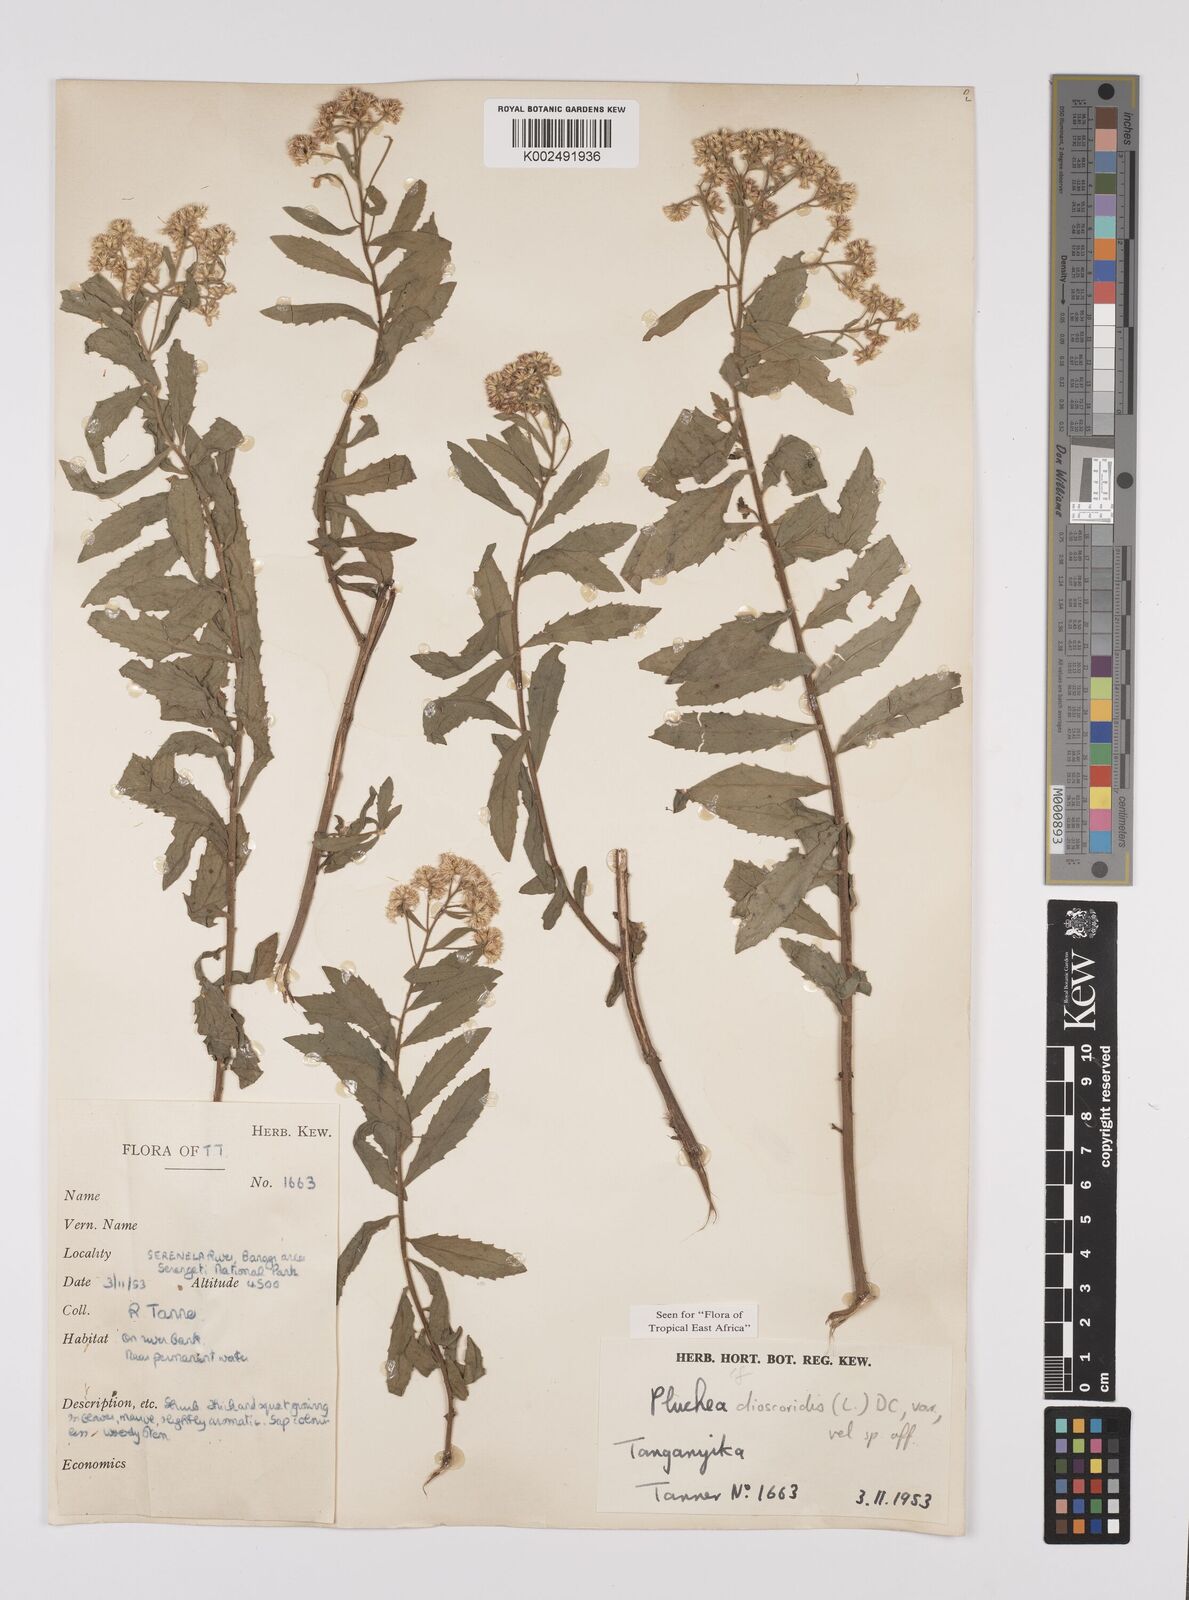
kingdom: Plantae
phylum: Tracheophyta
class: Magnoliopsida
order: Asterales
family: Asteraceae
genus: Pluchea
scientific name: Pluchea dioscoridis
